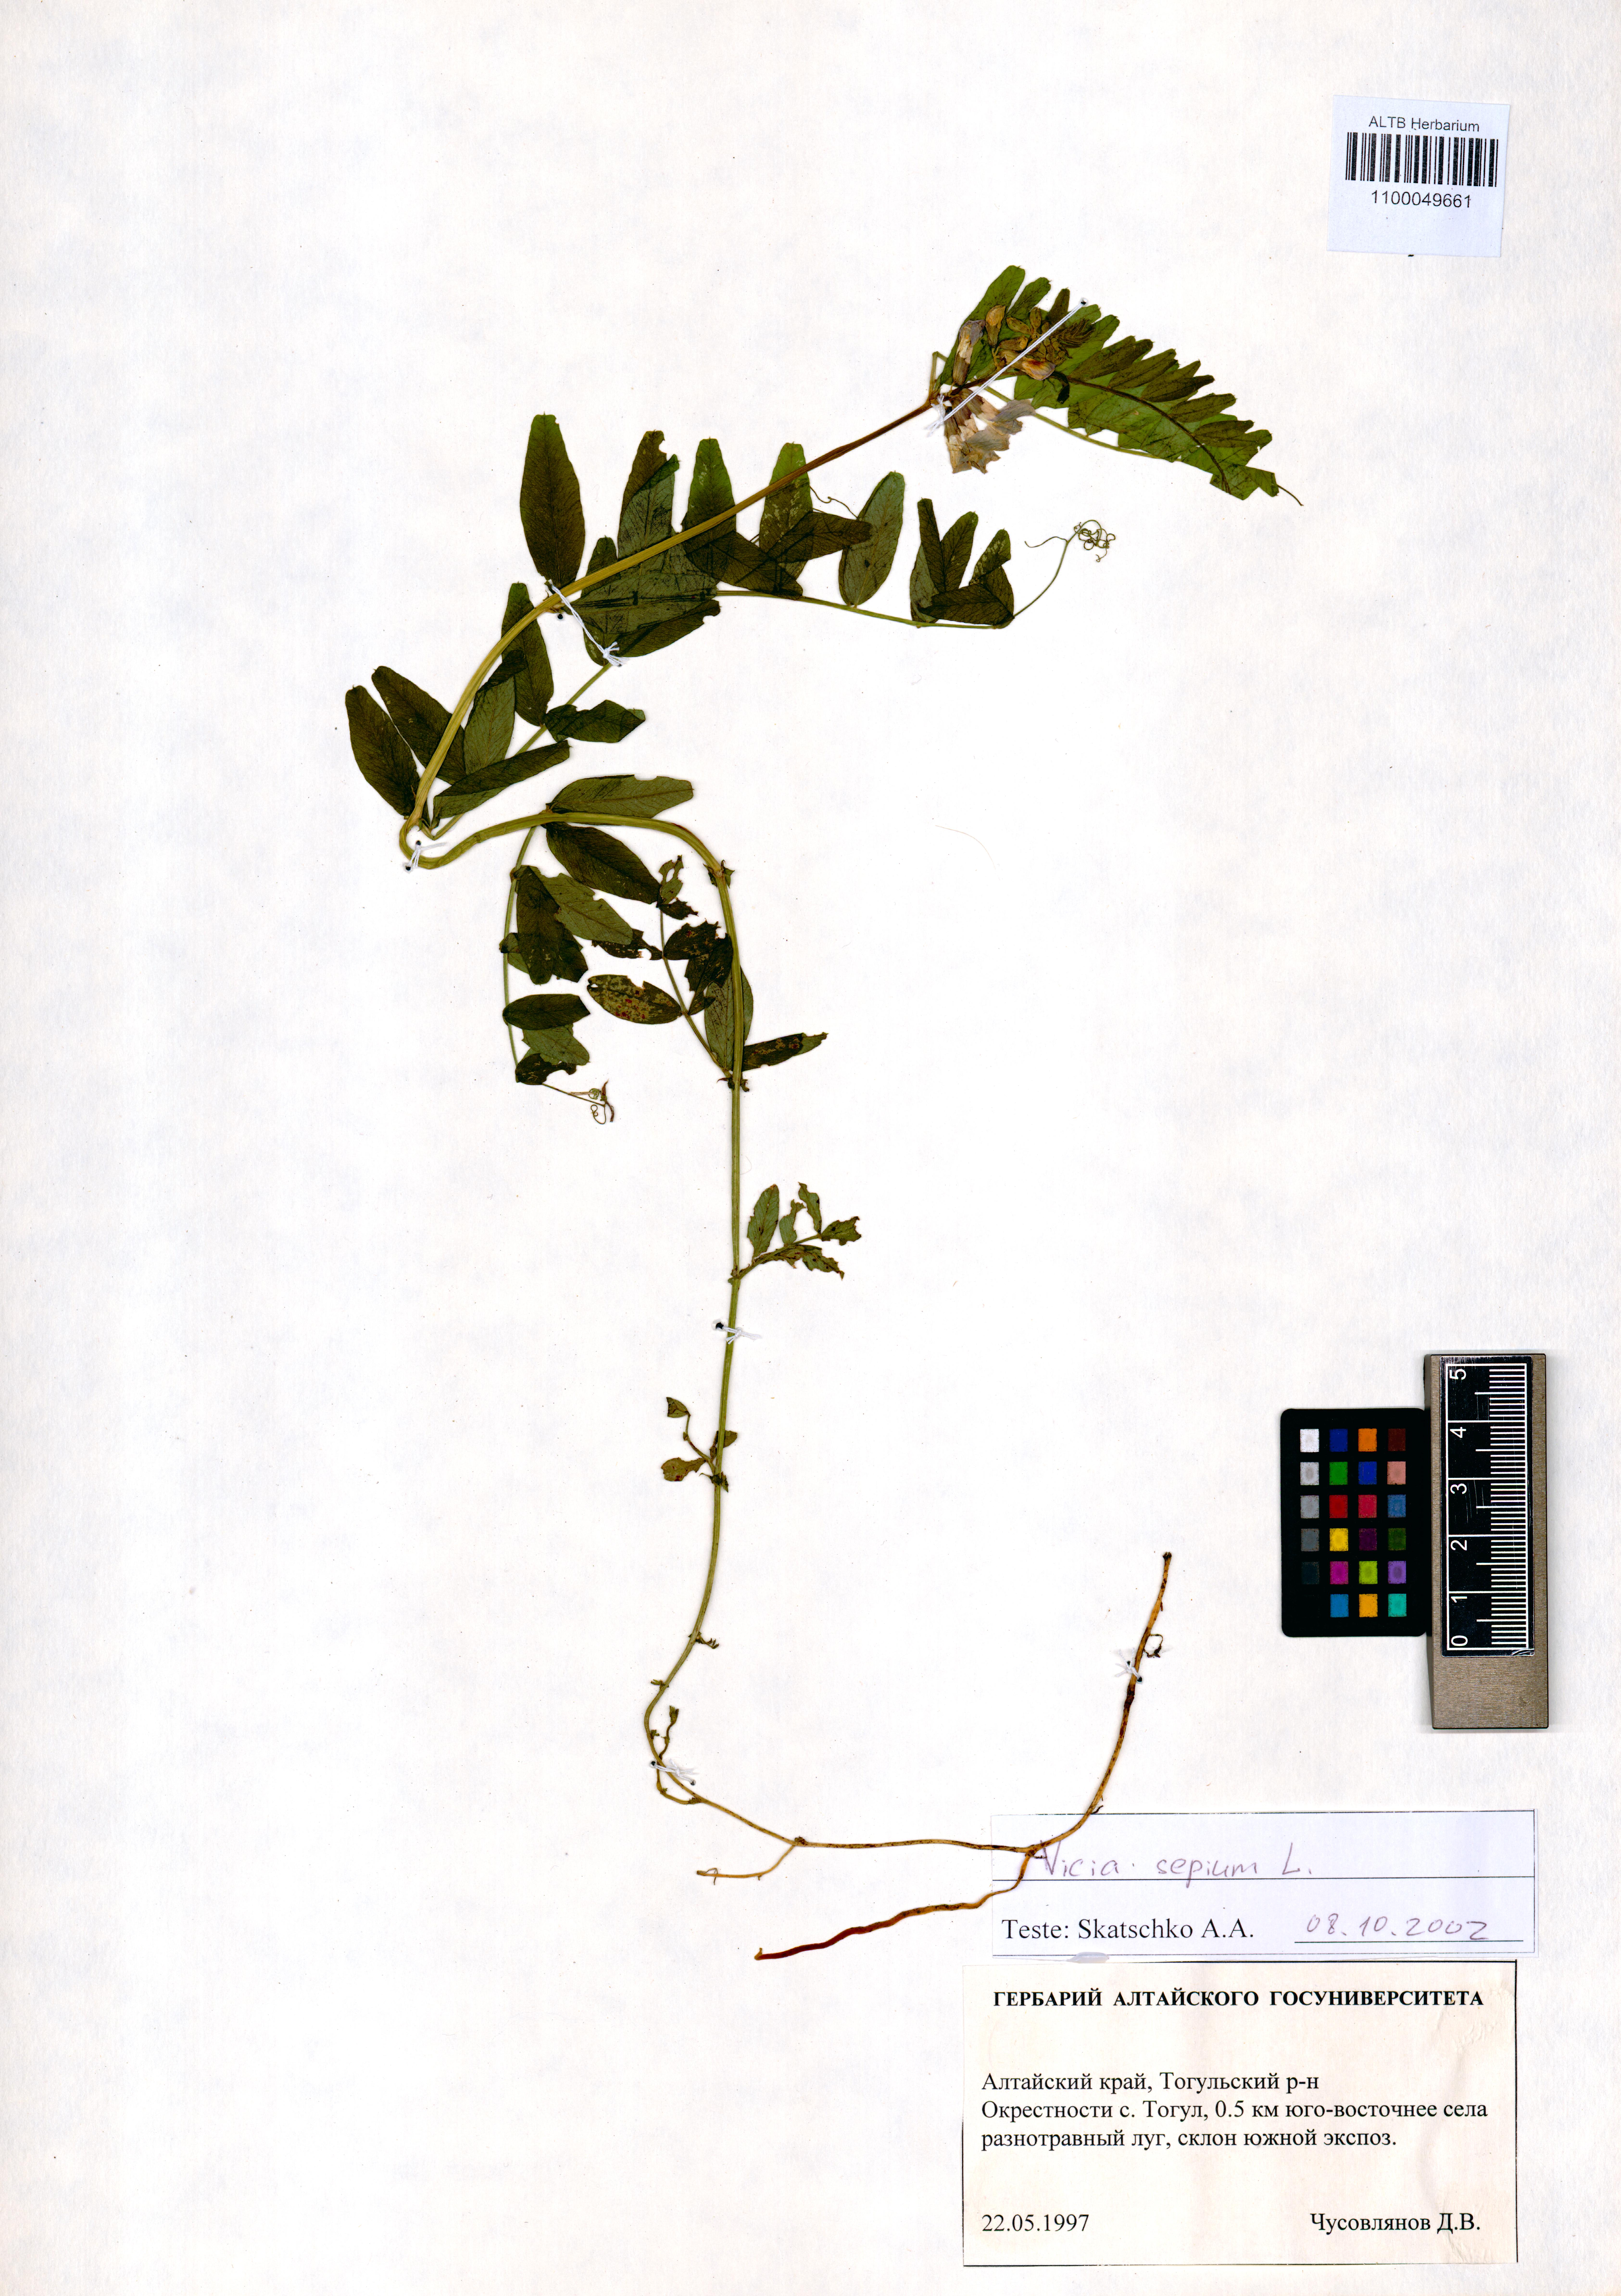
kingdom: Plantae
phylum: Tracheophyta
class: Magnoliopsida
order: Fabales
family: Fabaceae
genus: Vicia
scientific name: Vicia sepium
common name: Bush vetch
